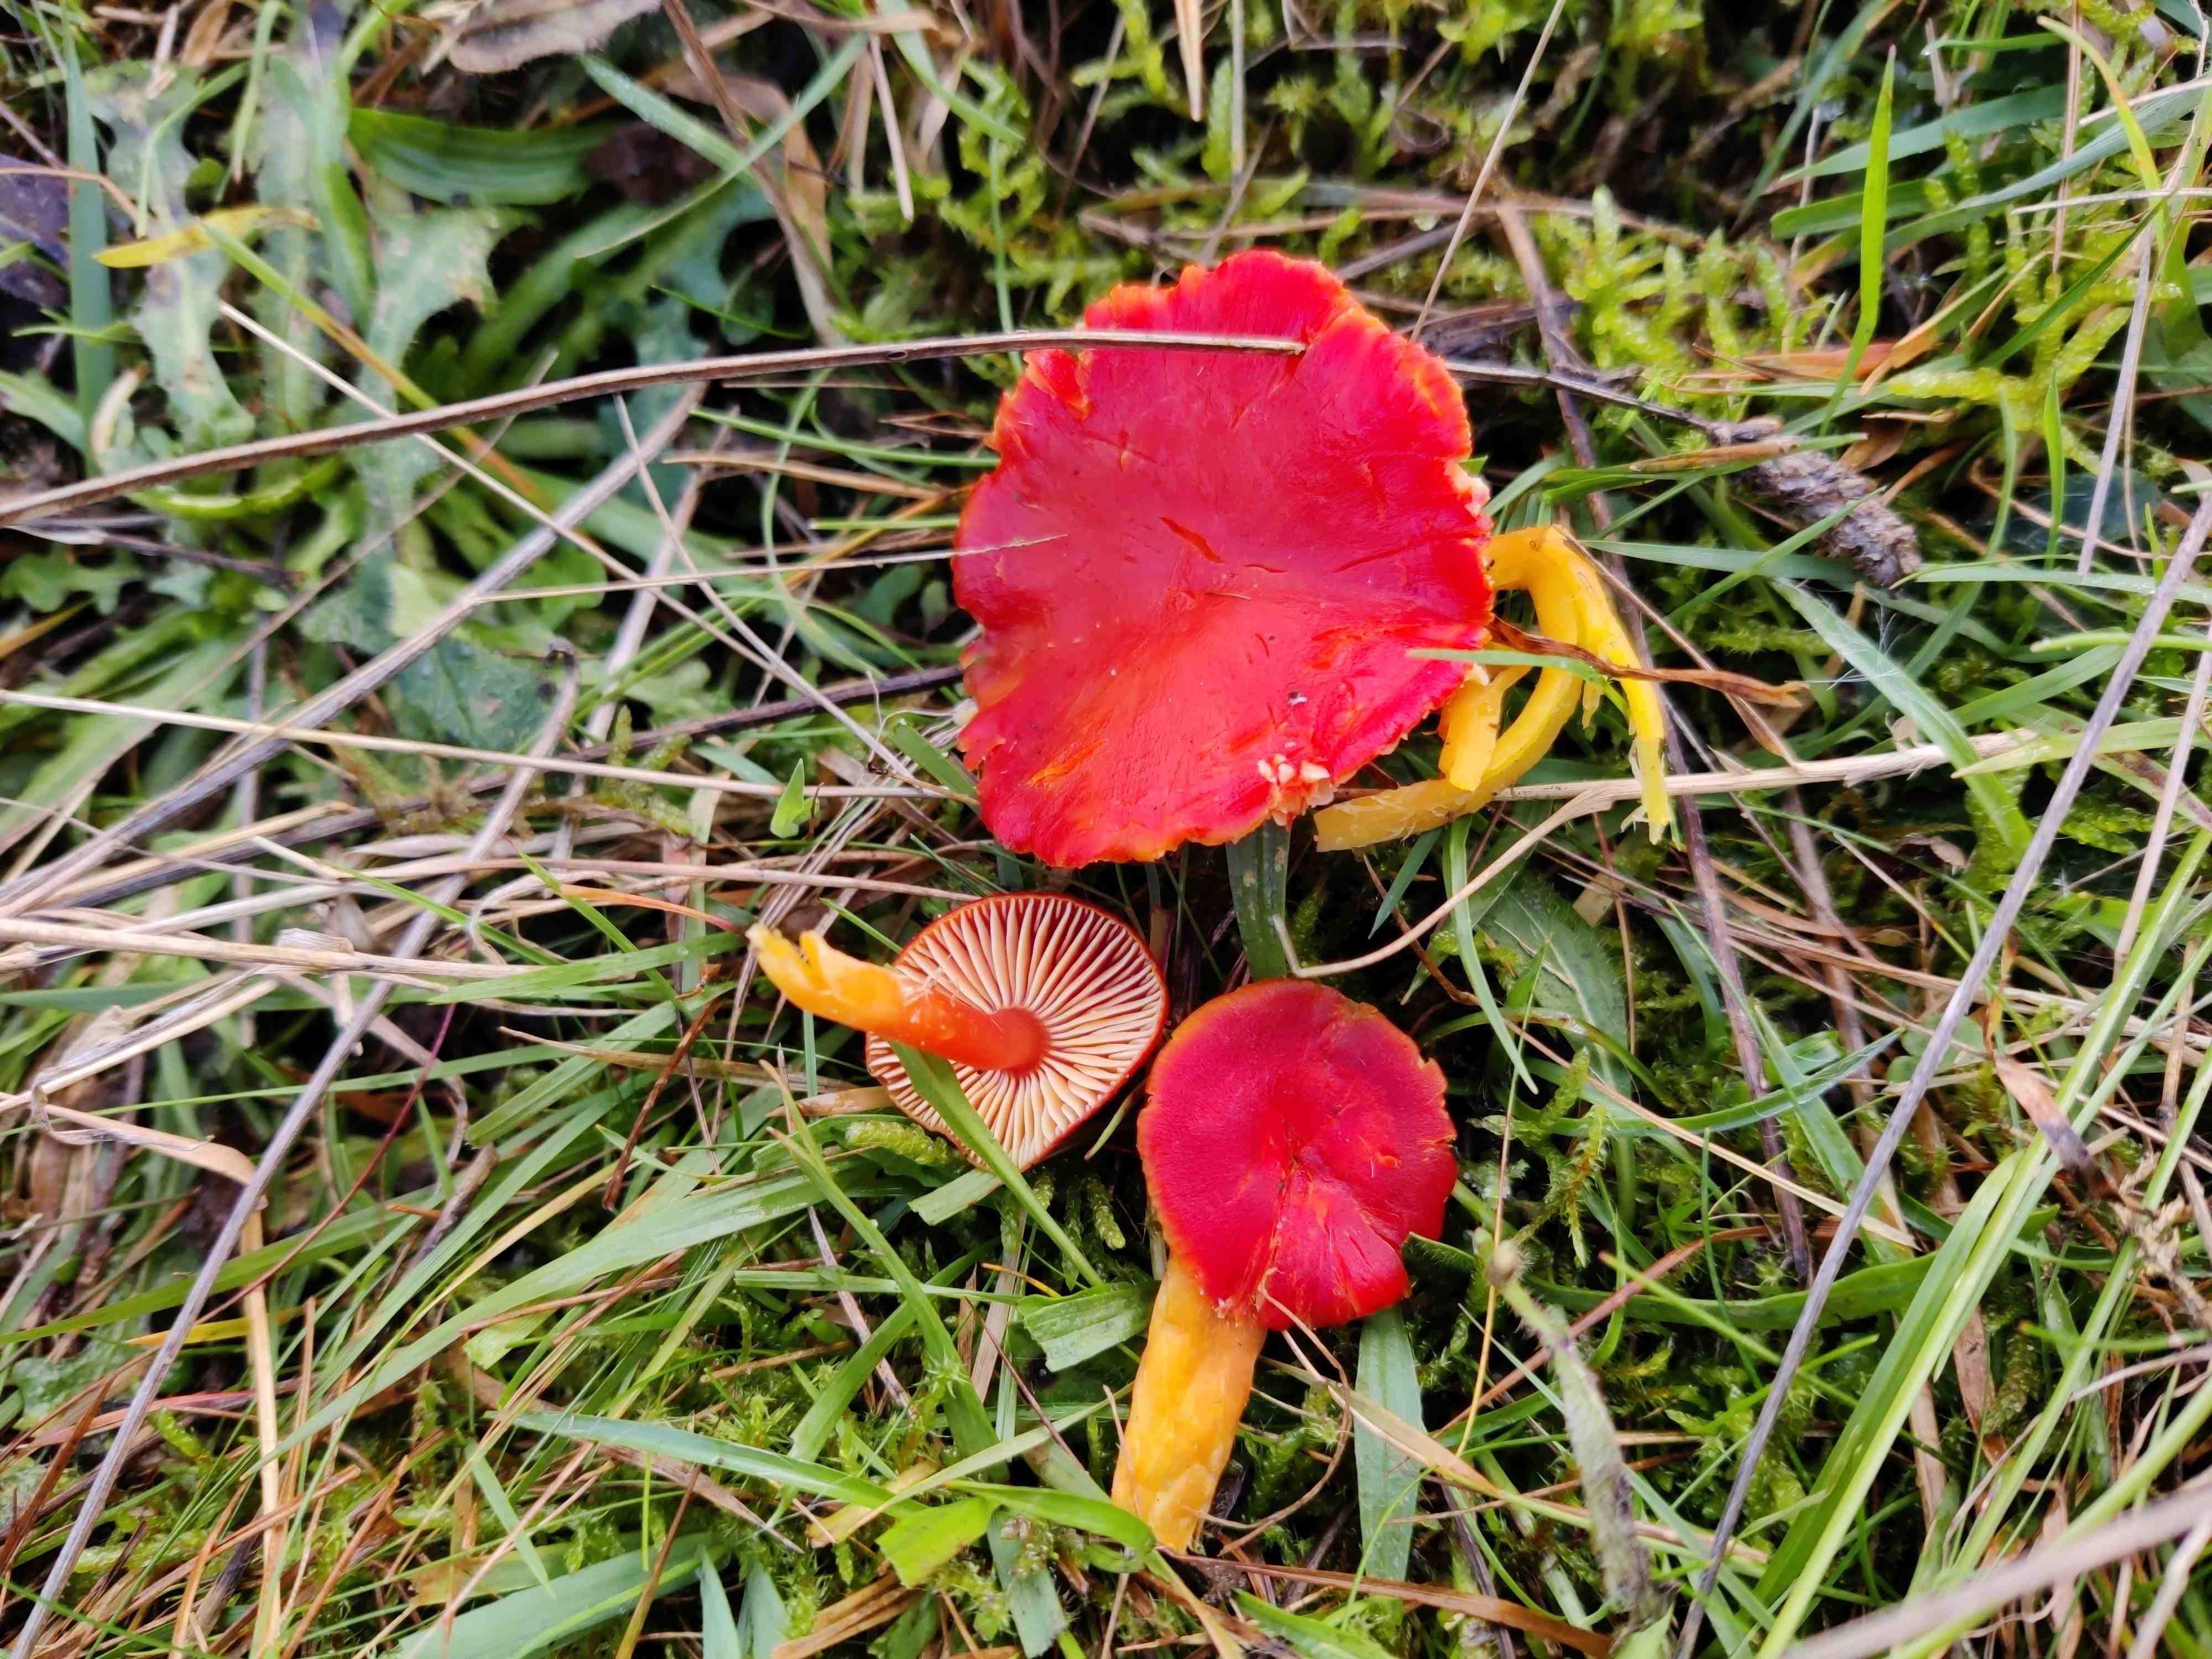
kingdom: Fungi
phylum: Basidiomycota
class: Agaricomycetes
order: Agaricales
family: Hygrophoraceae
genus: Hygrocybe
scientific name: Hygrocybe coccinea
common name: cinnober-vokshat
